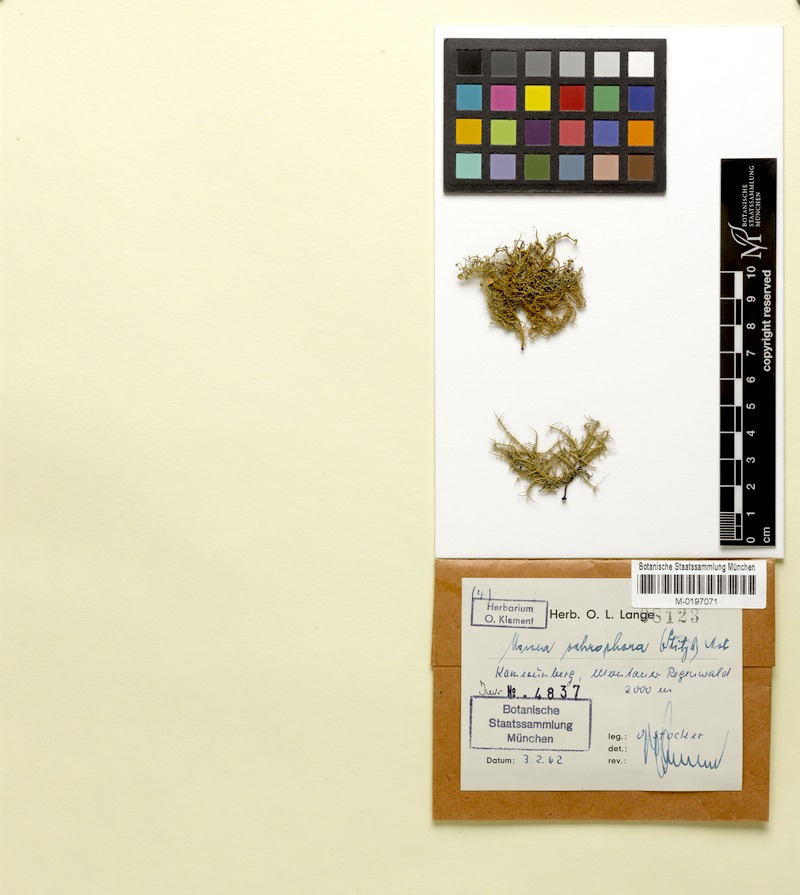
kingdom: Fungi
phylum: Ascomycota
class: Lecanoromycetes
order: Lecanorales
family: Parmeliaceae
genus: Usnea
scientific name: Usnea
